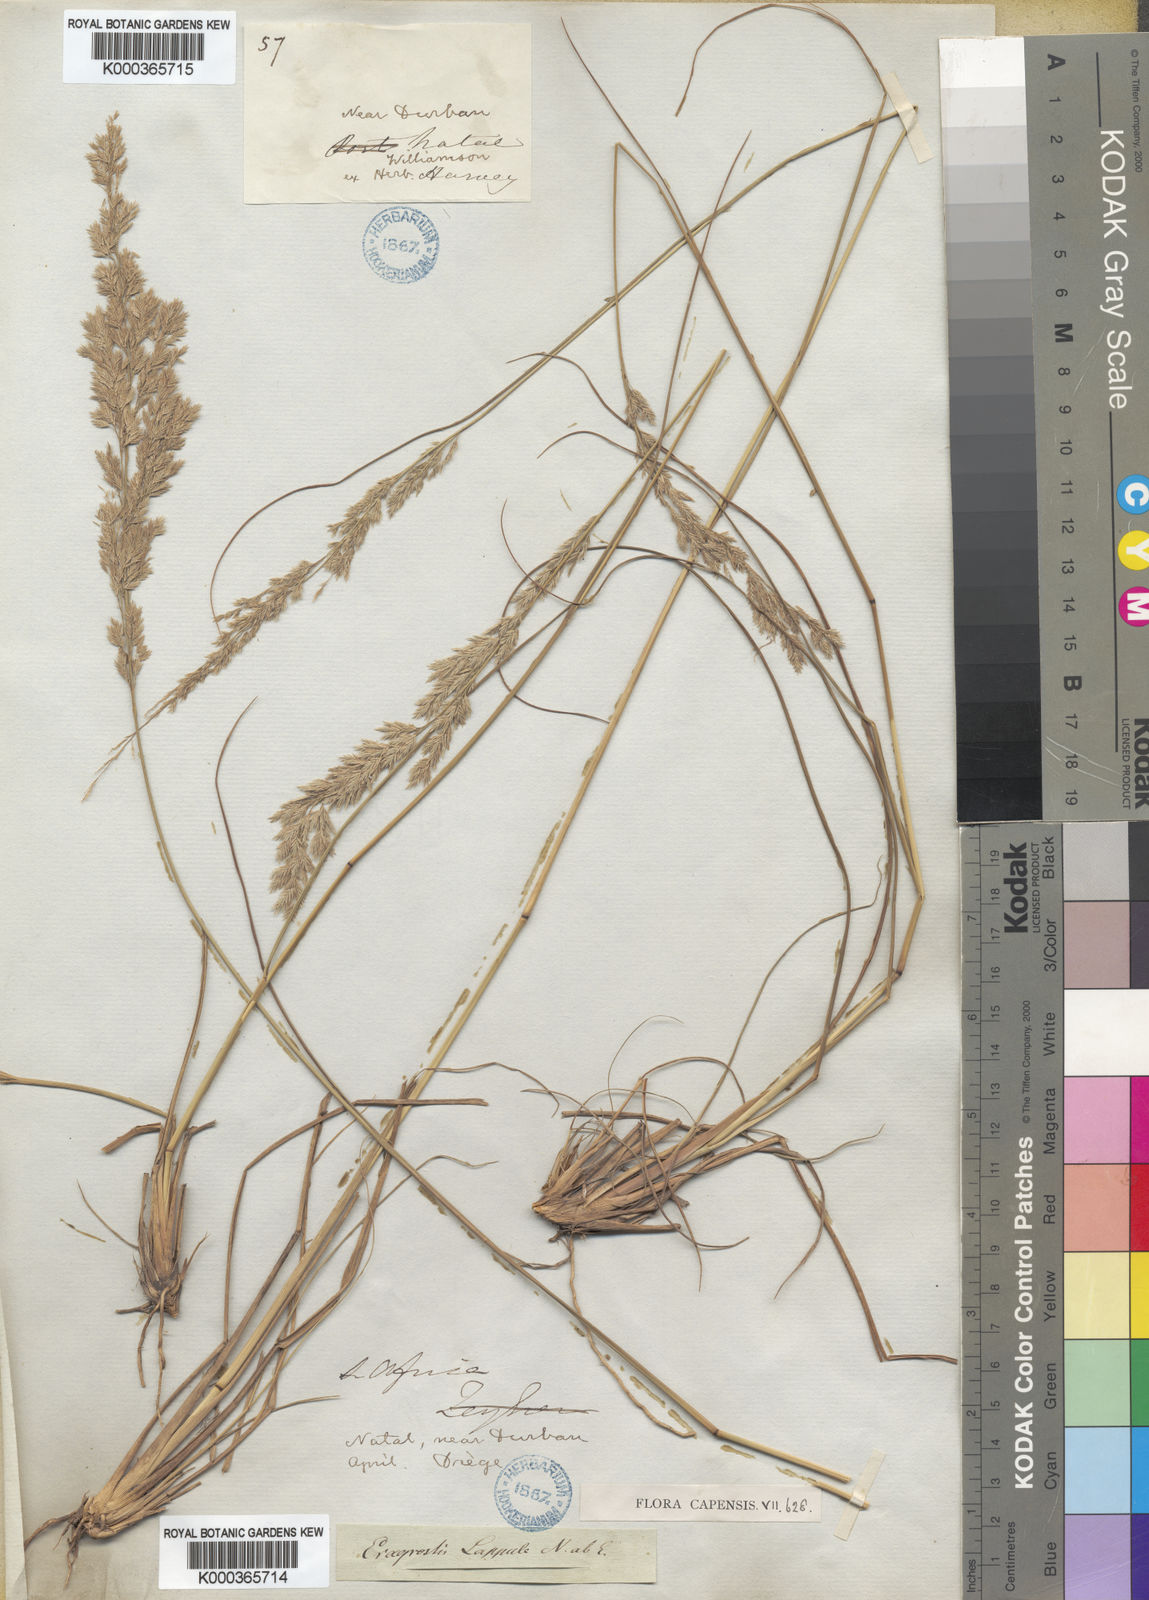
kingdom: Plantae
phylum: Tracheophyta
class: Liliopsida
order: Poales
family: Poaceae
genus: Eragrostis
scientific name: Eragrostis lappula
